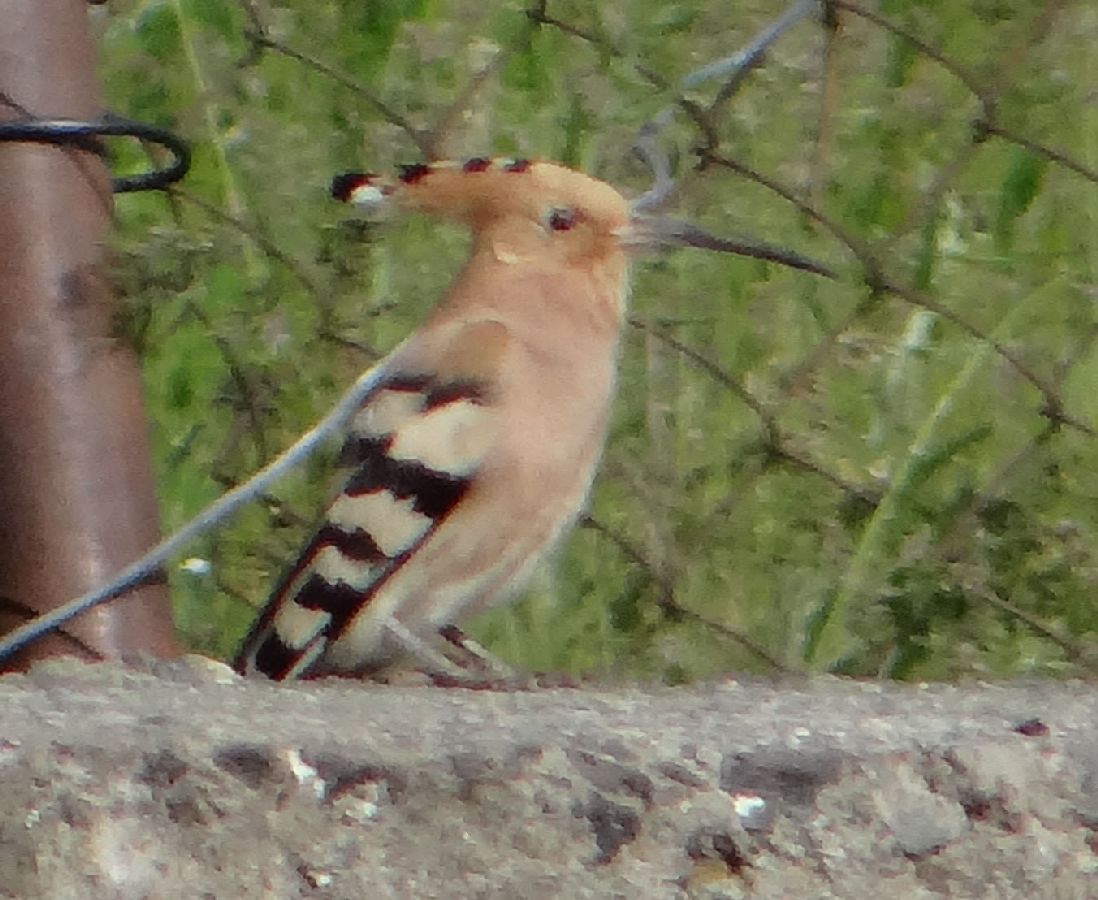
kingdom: Animalia
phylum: Chordata
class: Aves
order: Bucerotiformes
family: Upupidae
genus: Upupa
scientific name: Upupa epops
